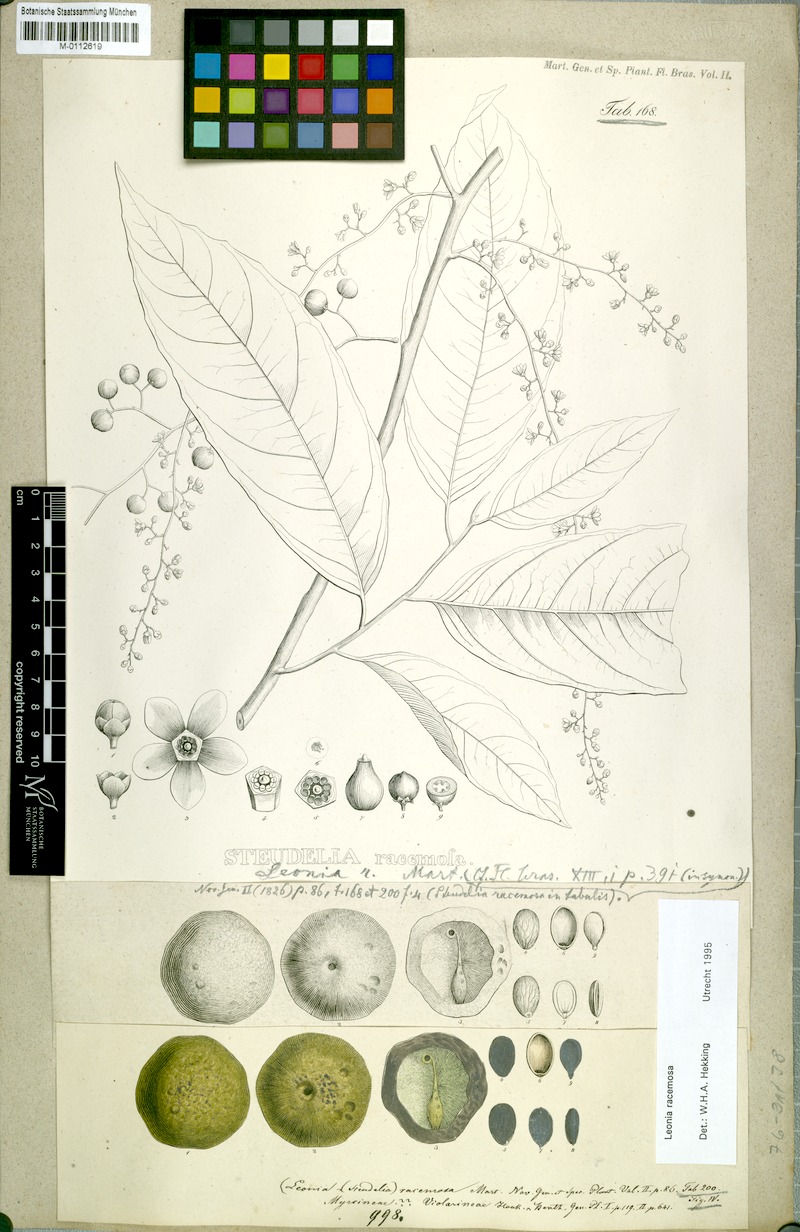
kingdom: Plantae
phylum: Tracheophyta
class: Magnoliopsida
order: Malpighiales
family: Violaceae
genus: Leonia
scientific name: Leonia racemosa
